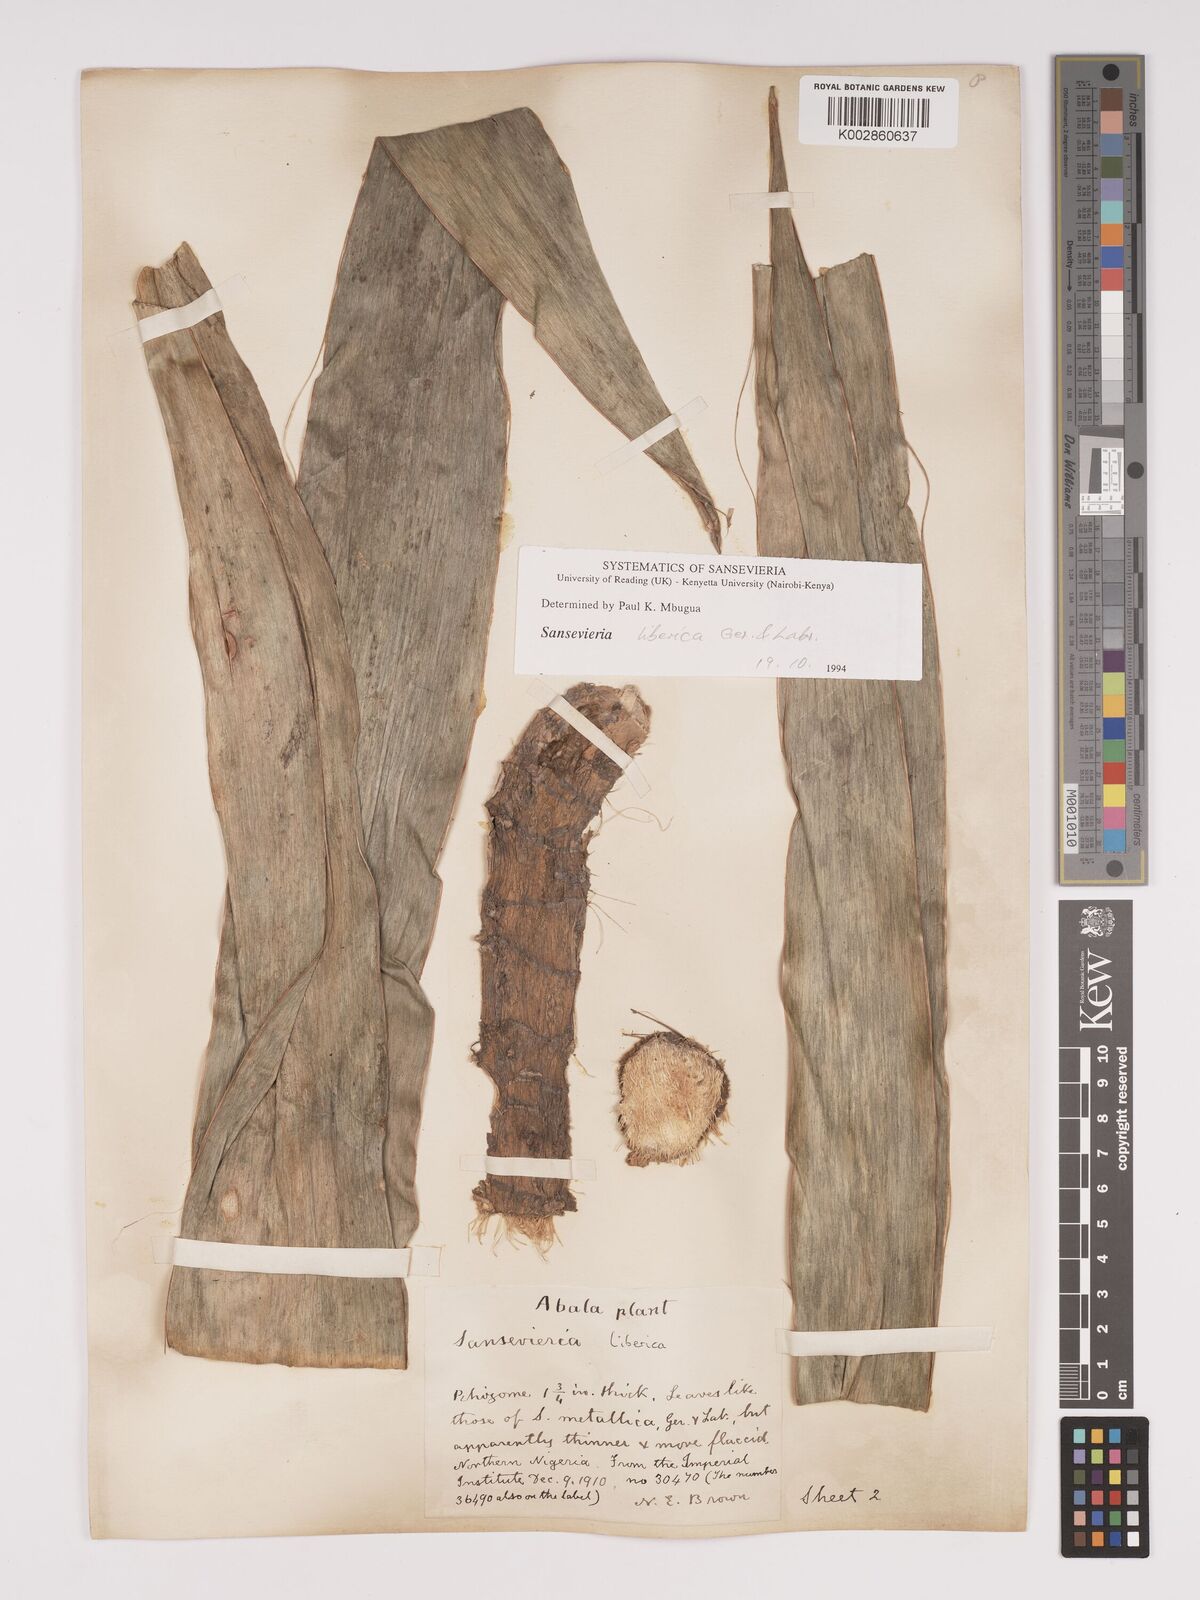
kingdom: Plantae
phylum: Tracheophyta
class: Liliopsida
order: Asparagales
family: Asparagaceae
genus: Dracaena
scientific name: Dracaena liberica
